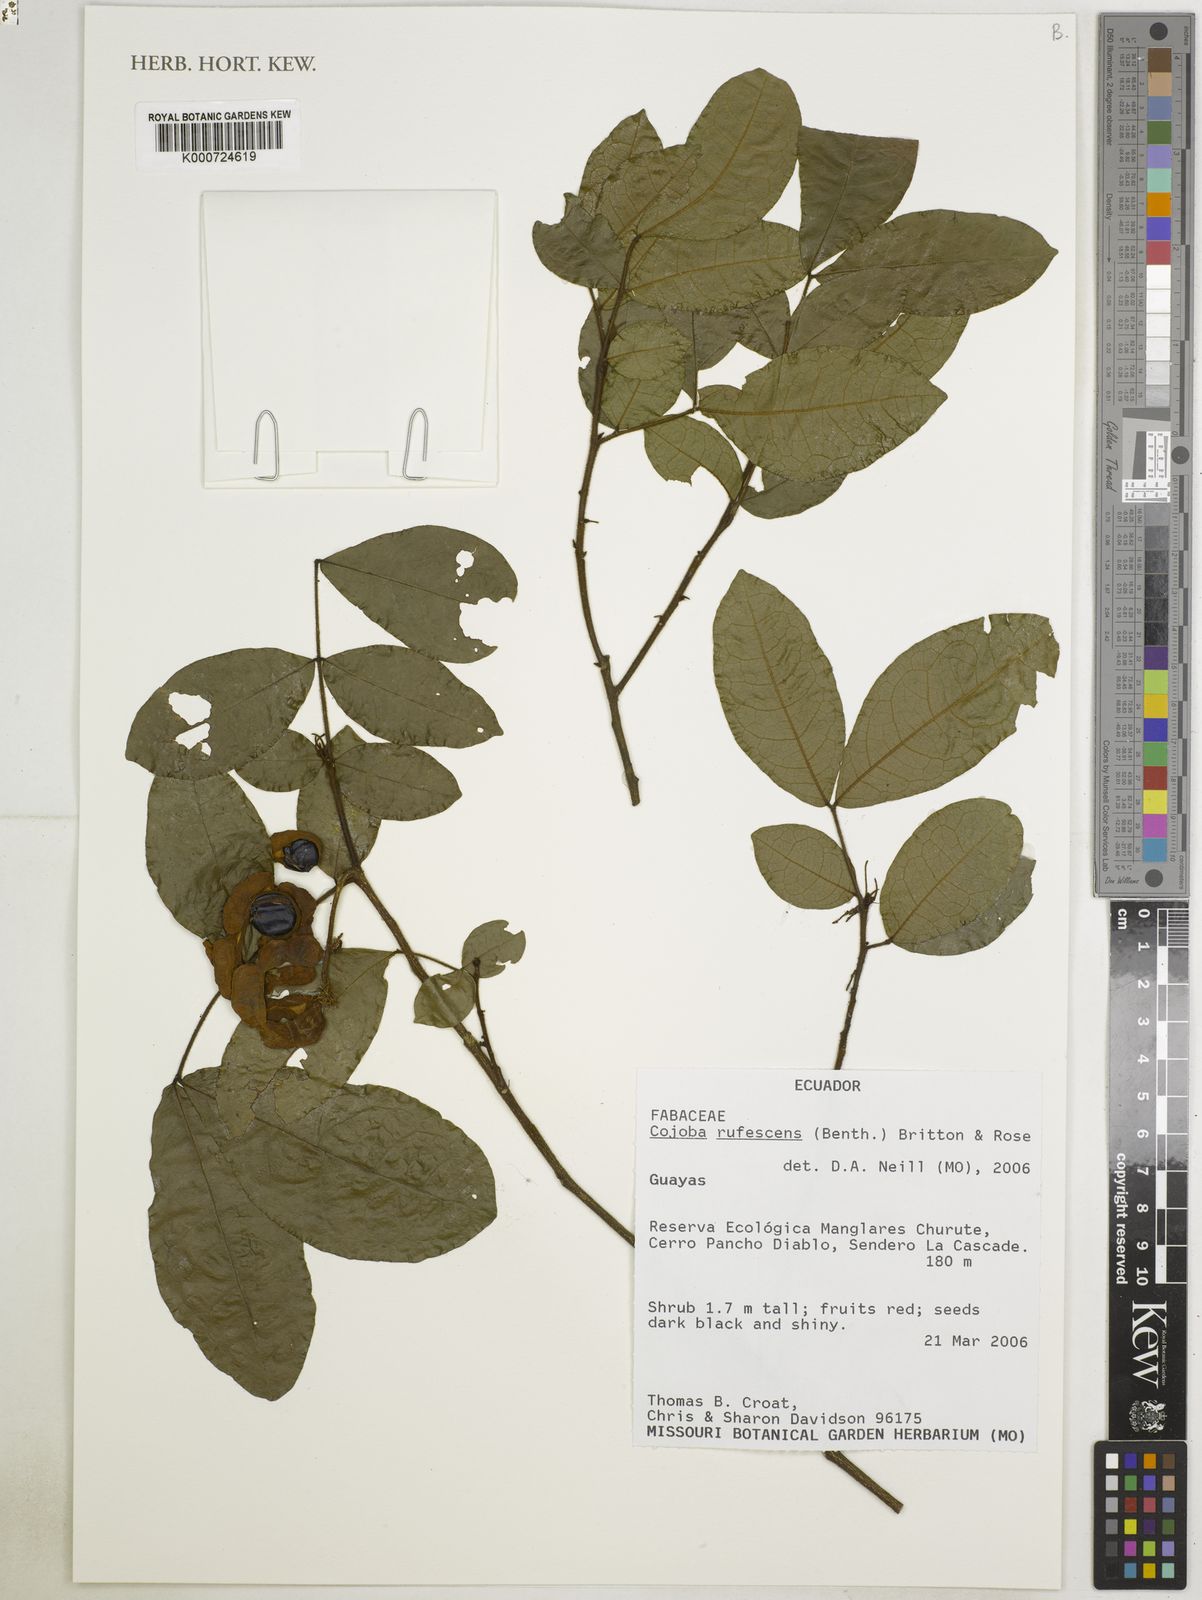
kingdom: Plantae
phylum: Tracheophyta
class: Magnoliopsida
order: Fabales
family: Fabaceae
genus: Cojoba
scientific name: Cojoba rufescens
